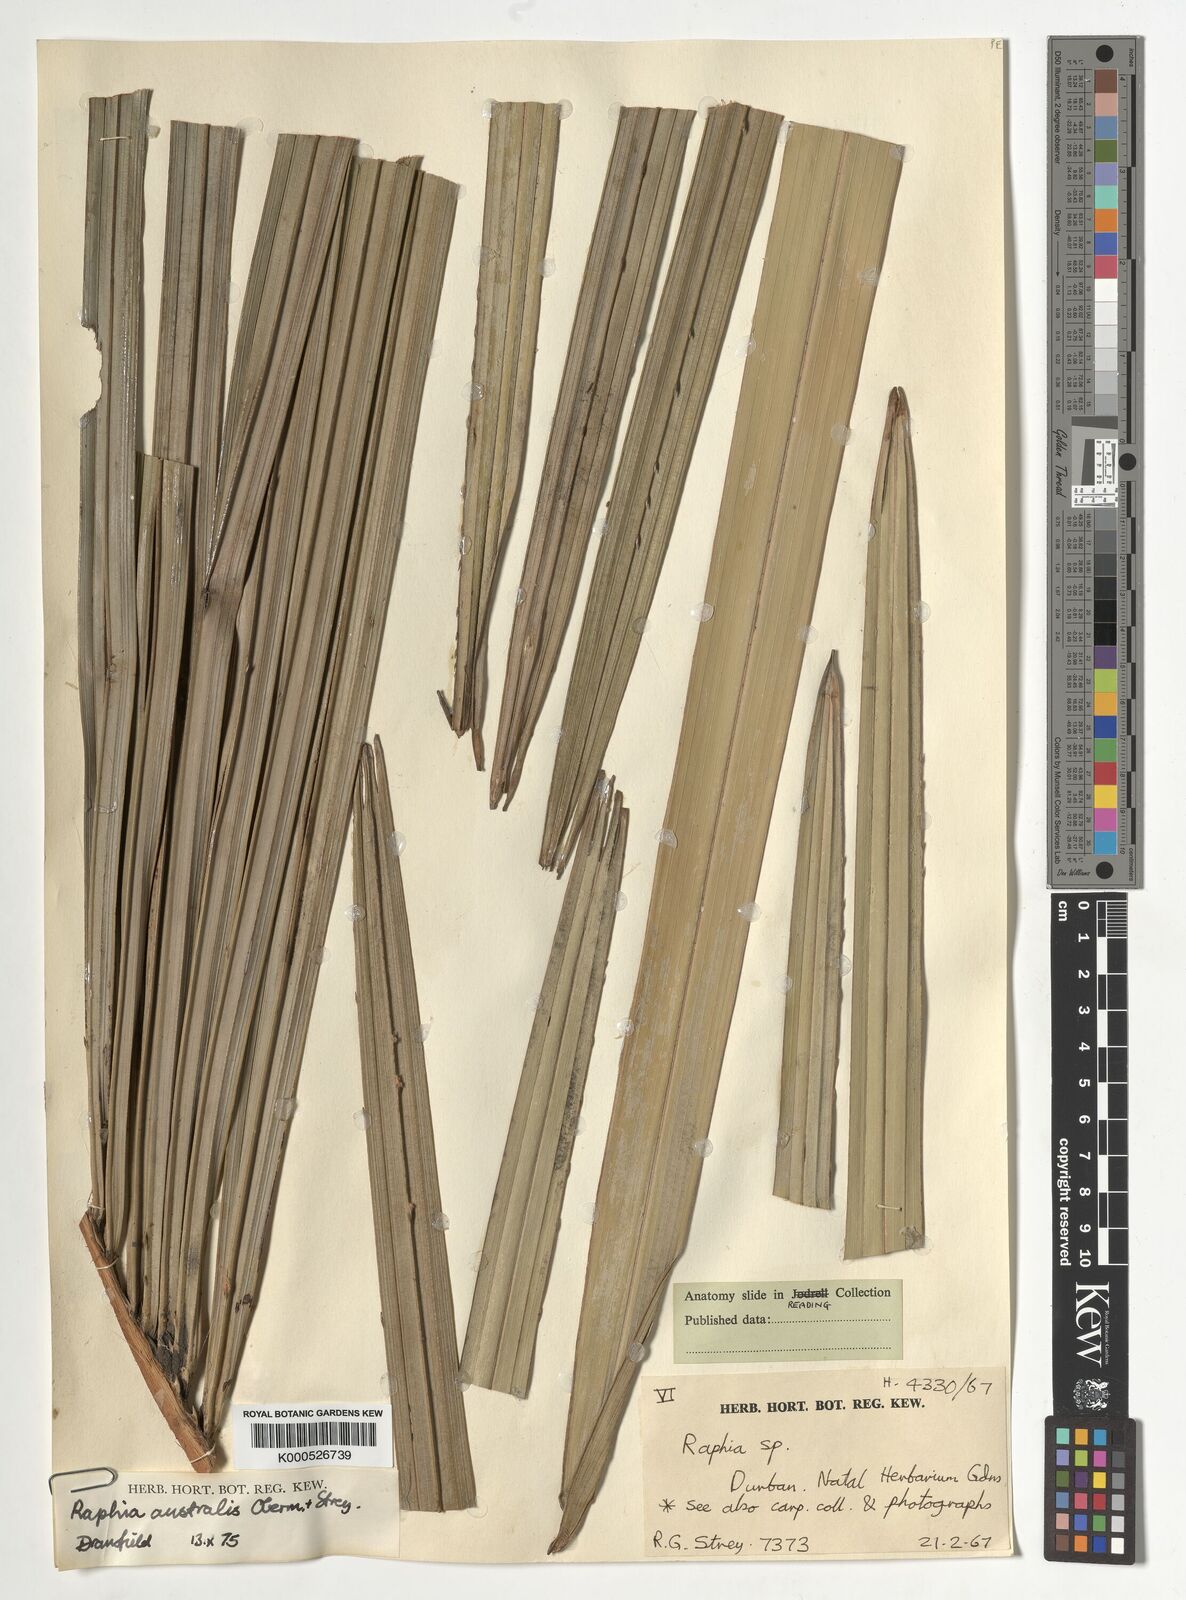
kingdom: Plantae
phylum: Tracheophyta
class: Liliopsida
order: Arecales
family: Arecaceae
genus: Raphia
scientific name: Raphia australis
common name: Giant palm
